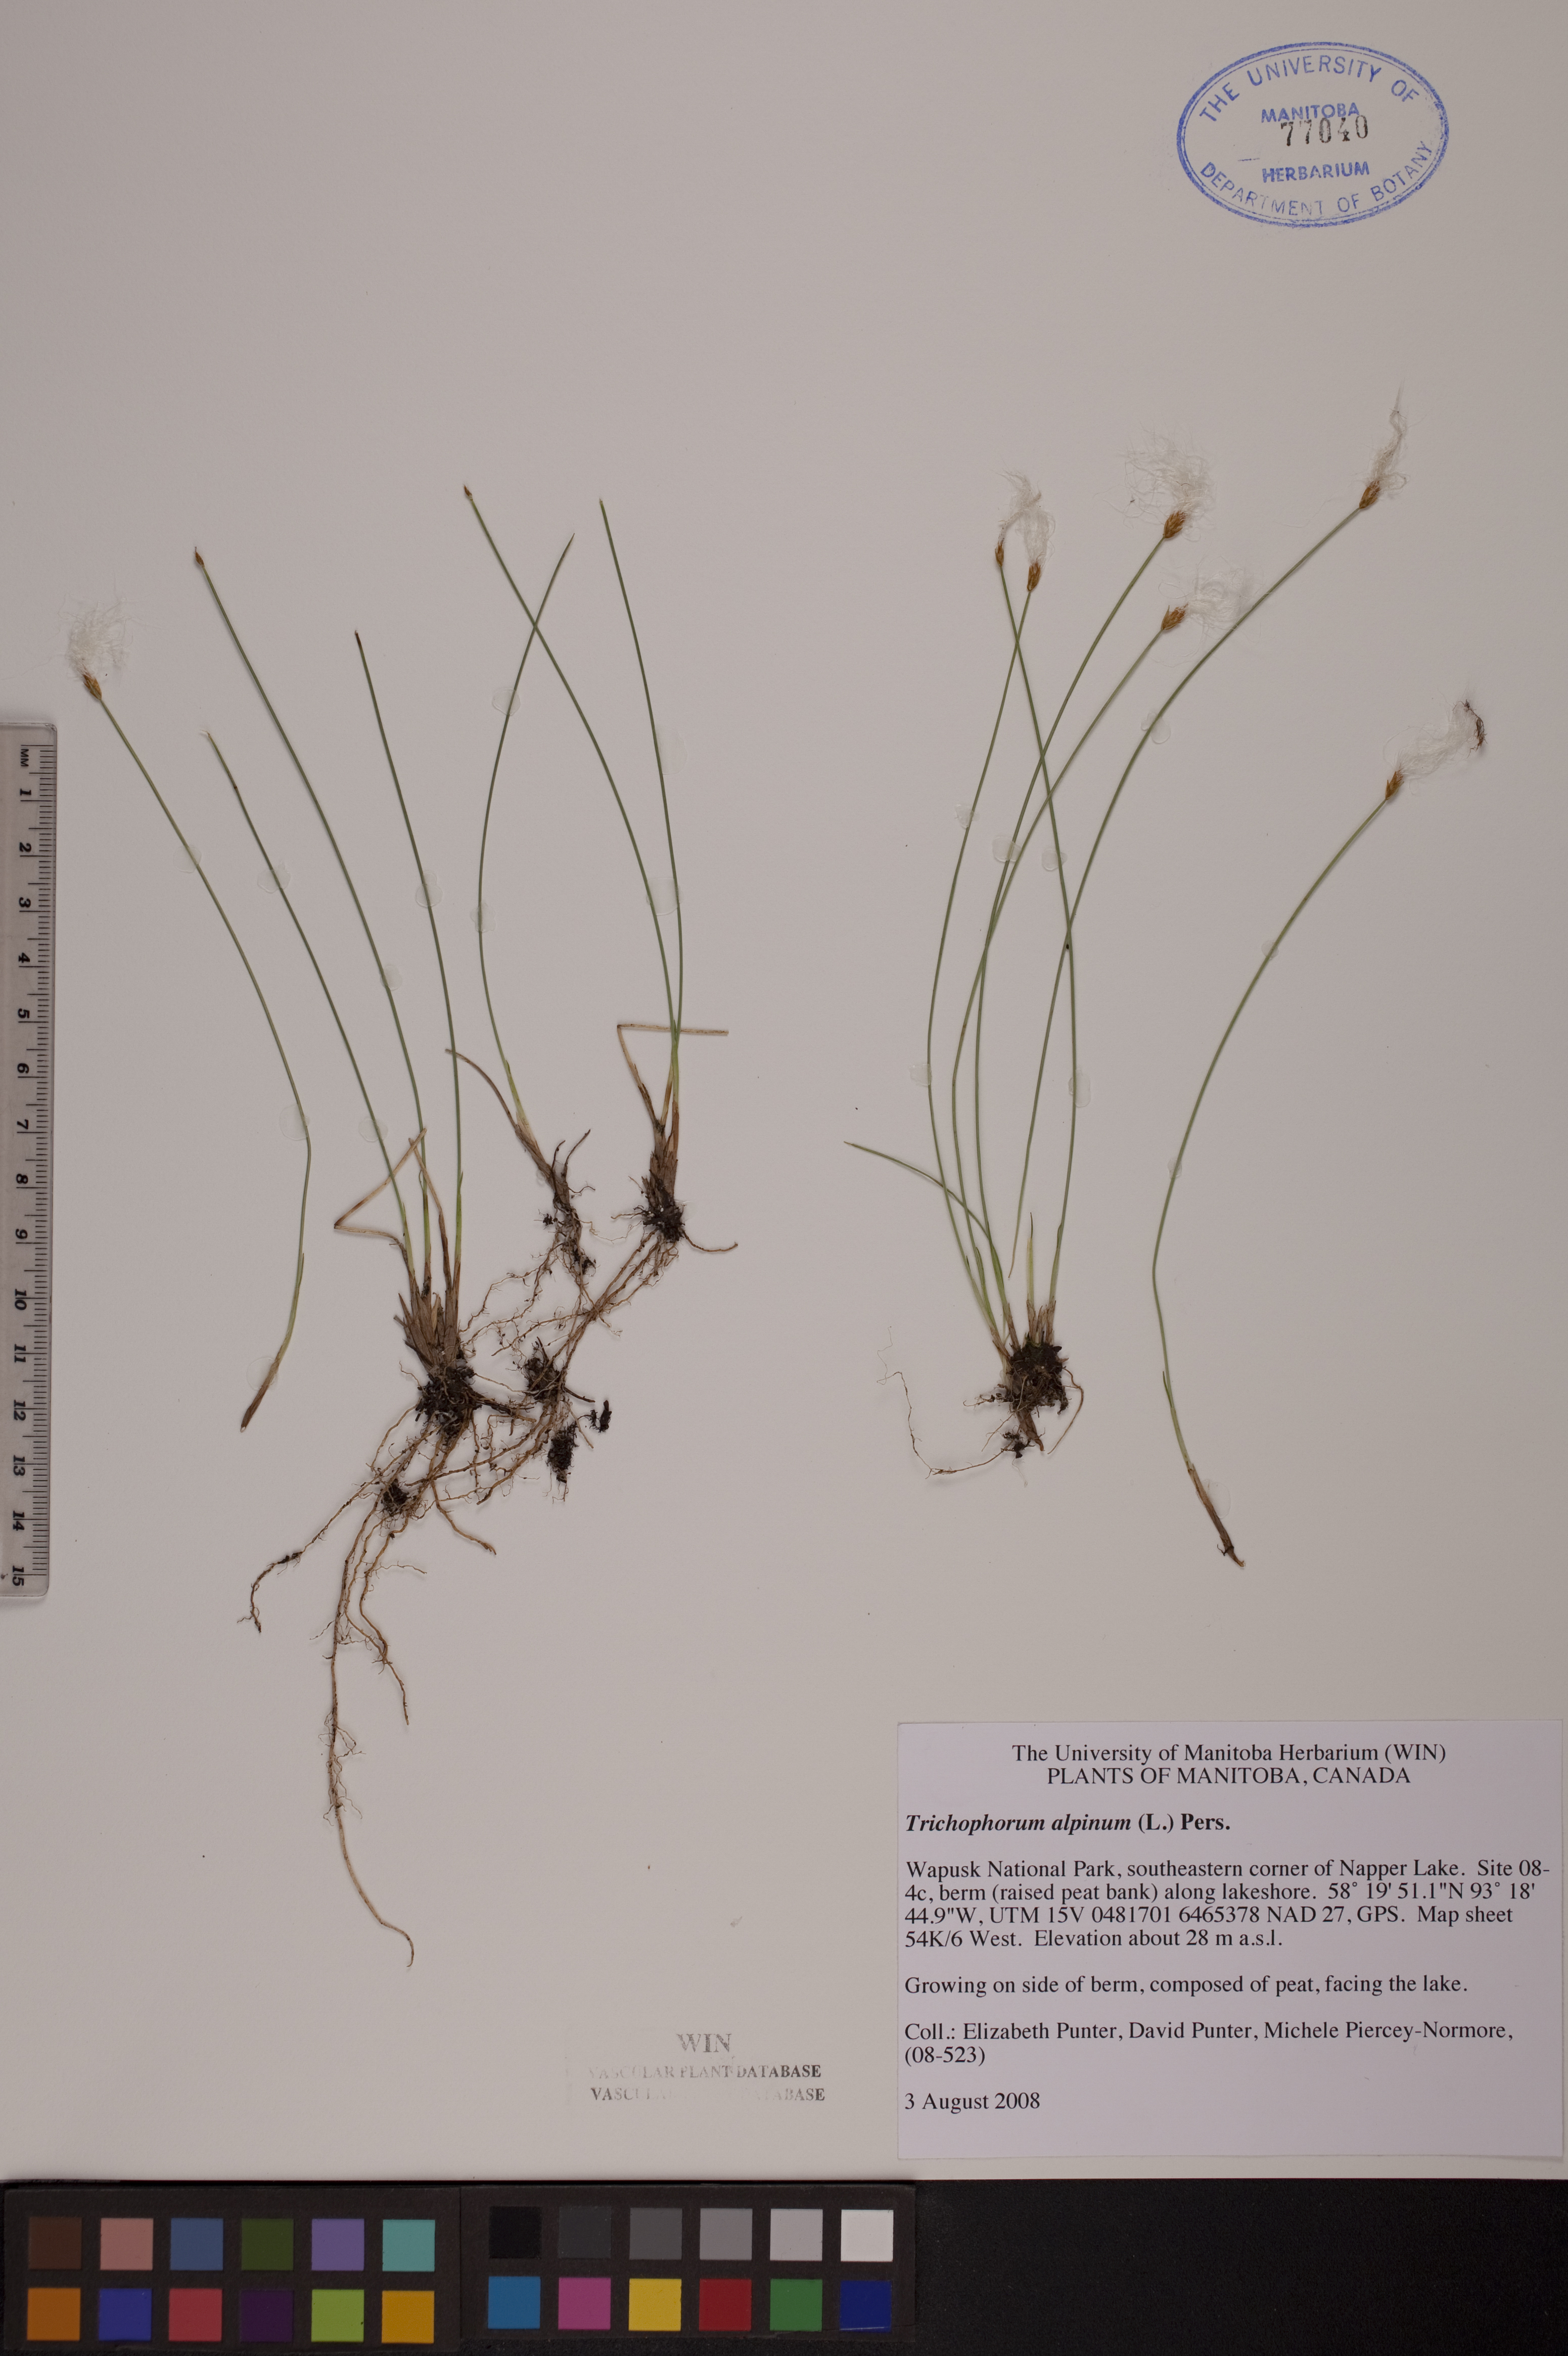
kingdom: Plantae
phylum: Tracheophyta
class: Liliopsida
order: Poales
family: Cyperaceae
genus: Trichophorum
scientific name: Trichophorum alpinum
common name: Alpine bulrush
